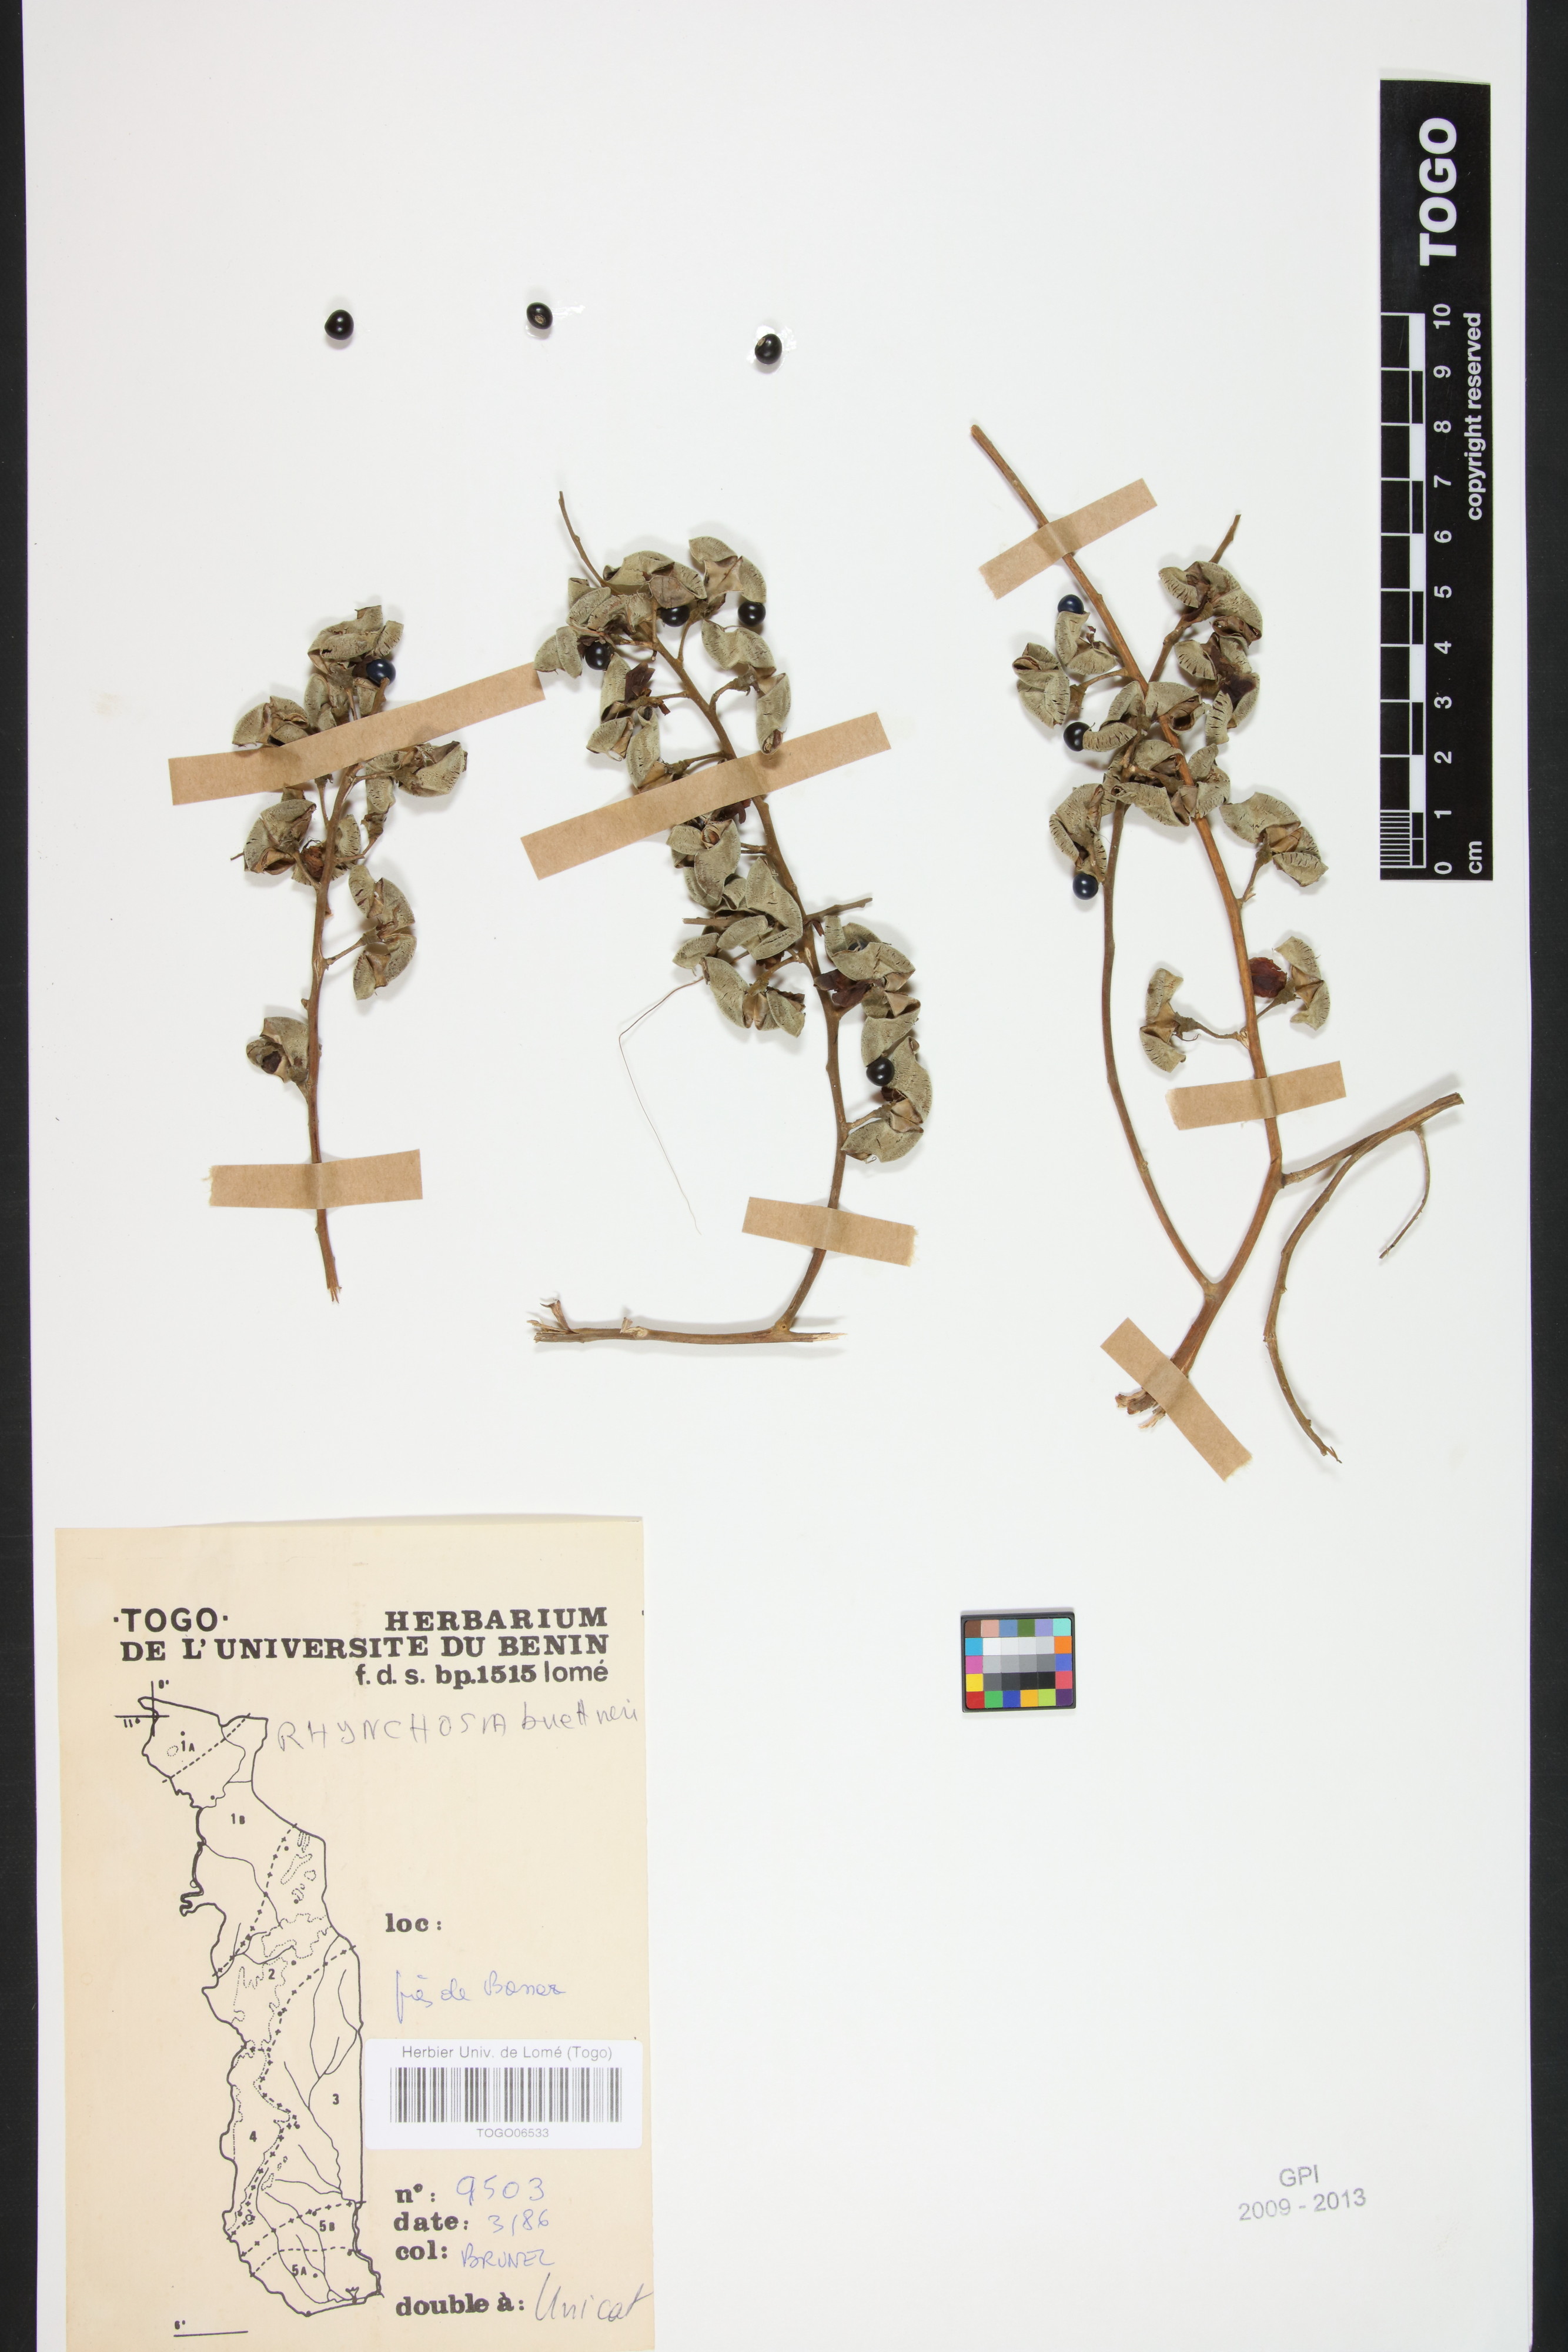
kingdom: Plantae
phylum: Tracheophyta
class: Magnoliopsida
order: Fabales
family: Fabaceae
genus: Rhynchosia
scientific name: Rhynchosia buettneri
